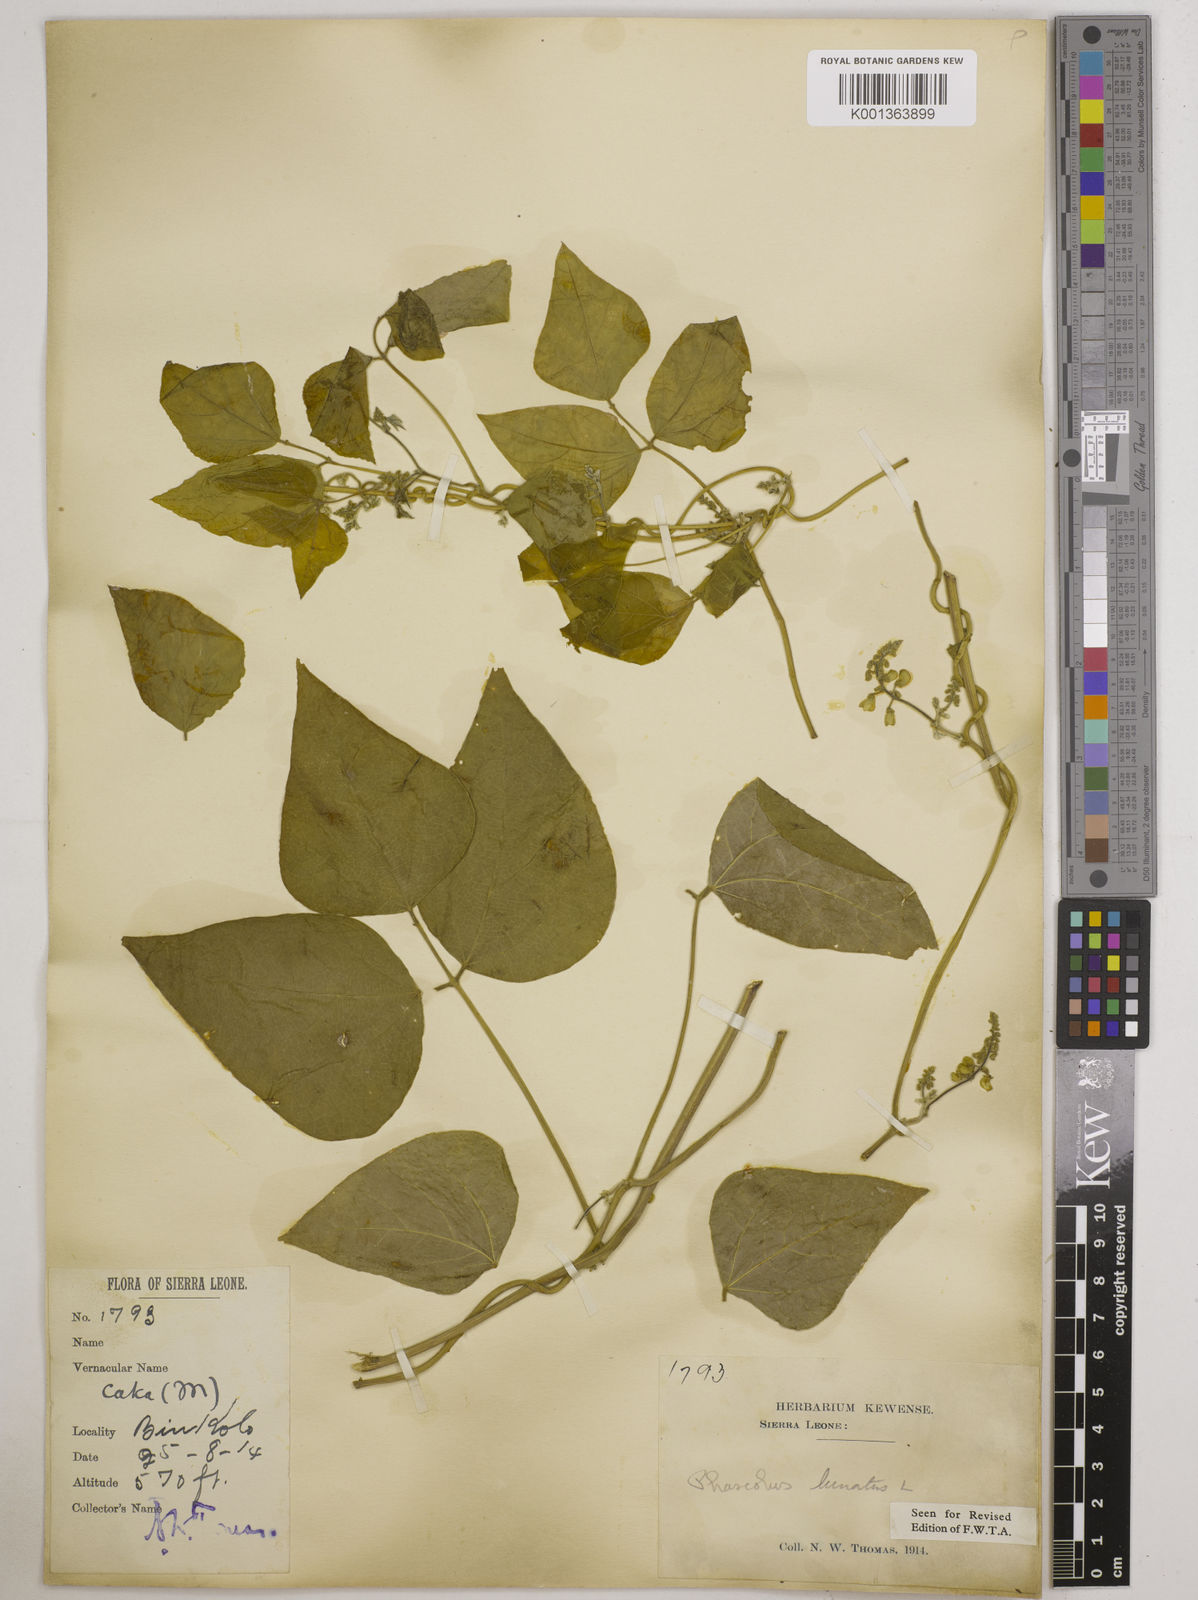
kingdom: Plantae
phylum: Tracheophyta
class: Magnoliopsida
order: Fabales
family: Fabaceae
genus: Phaseolus
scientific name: Phaseolus lunatus
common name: Sieva bean
